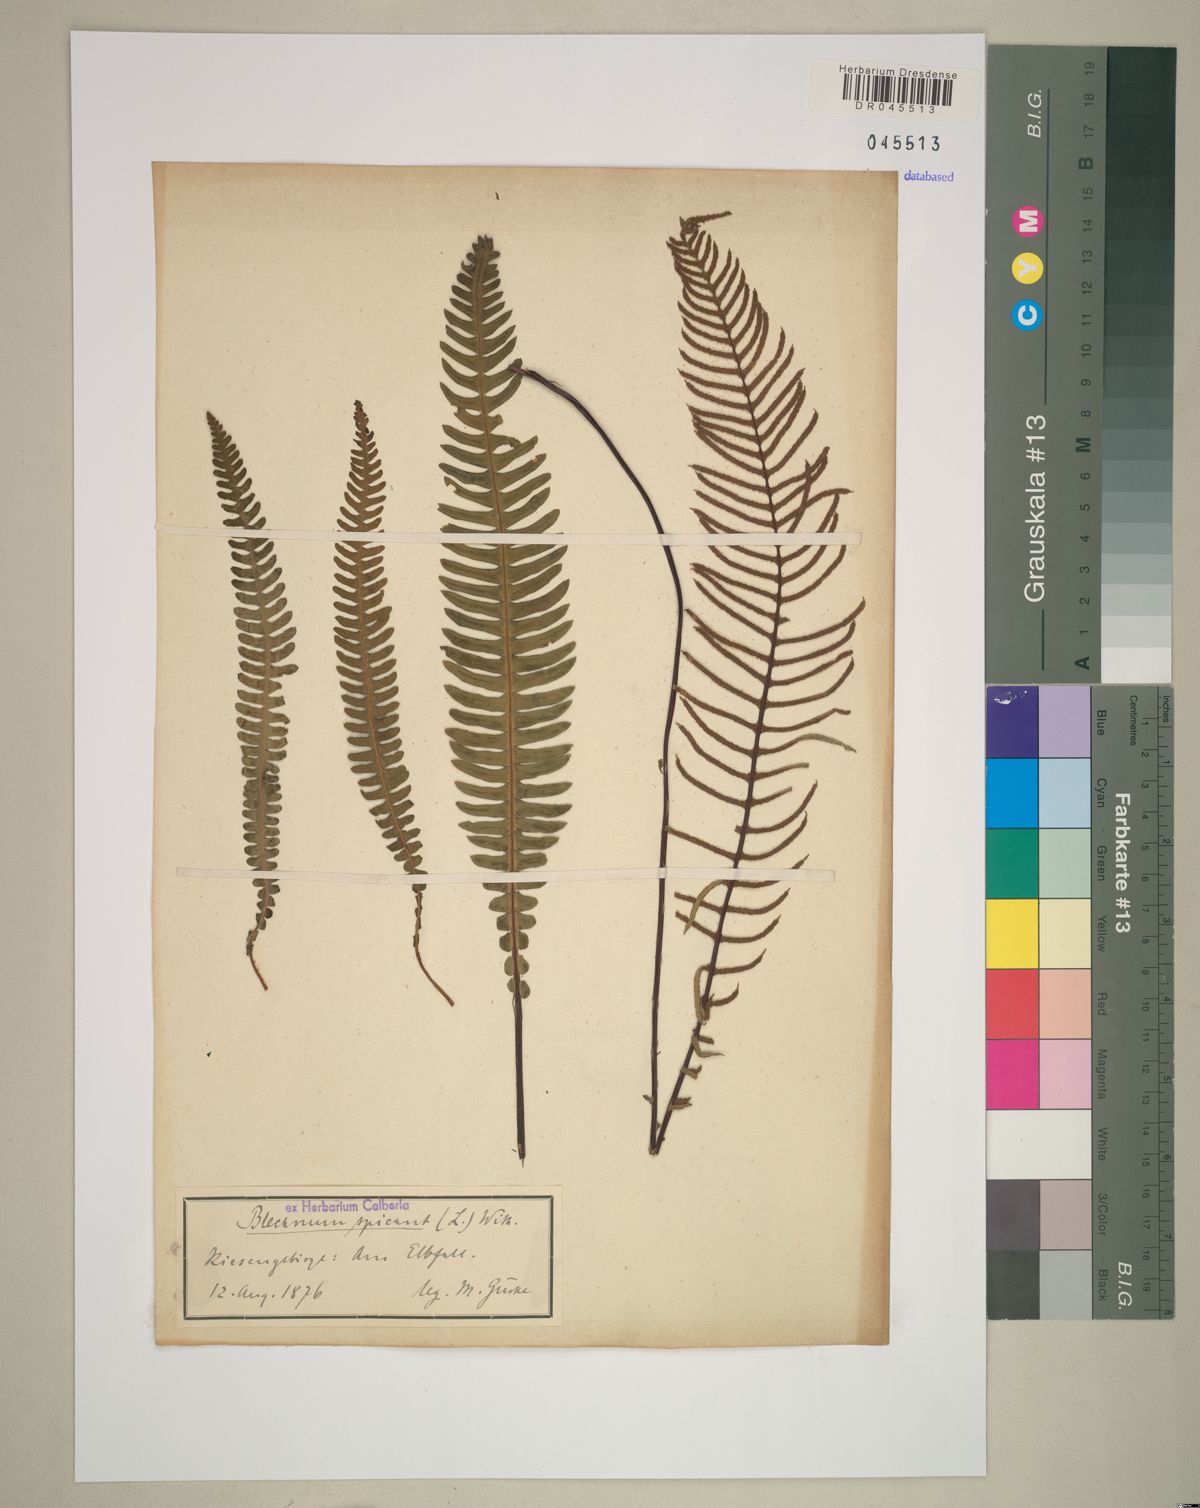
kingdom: Plantae
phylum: Tracheophyta
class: Polypodiopsida
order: Polypodiales
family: Blechnaceae
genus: Struthiopteris
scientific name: Struthiopteris spicant
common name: Deer fern
